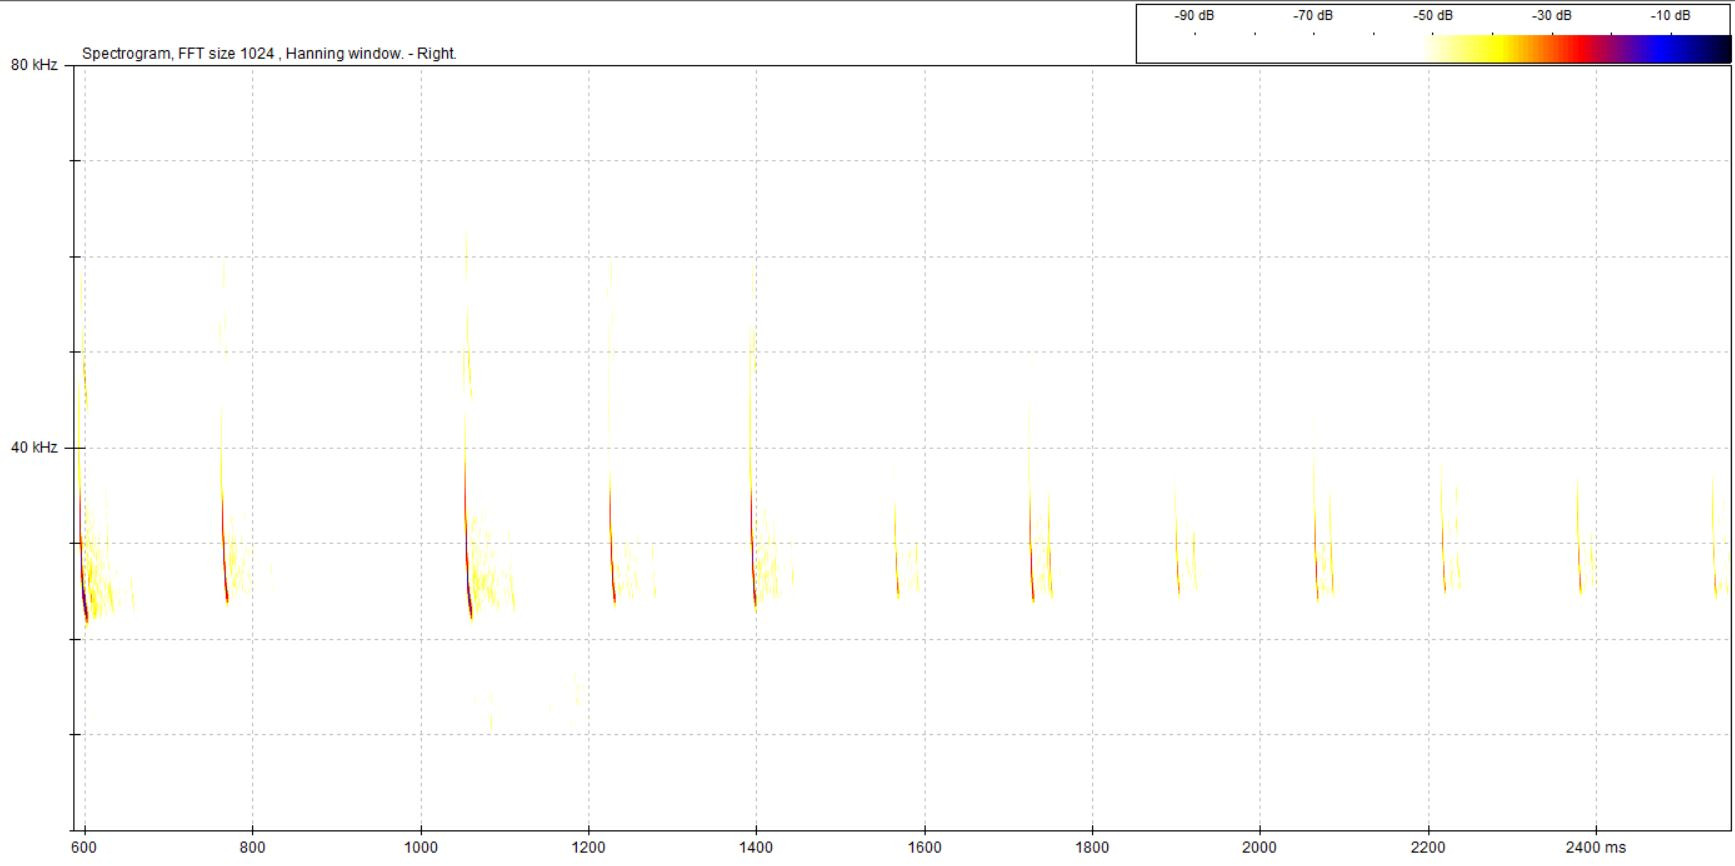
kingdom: Animalia
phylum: Chordata
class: Mammalia
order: Chiroptera
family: Vespertilionidae
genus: Eptesicus
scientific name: Eptesicus serotinus
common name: Sydflagermus
